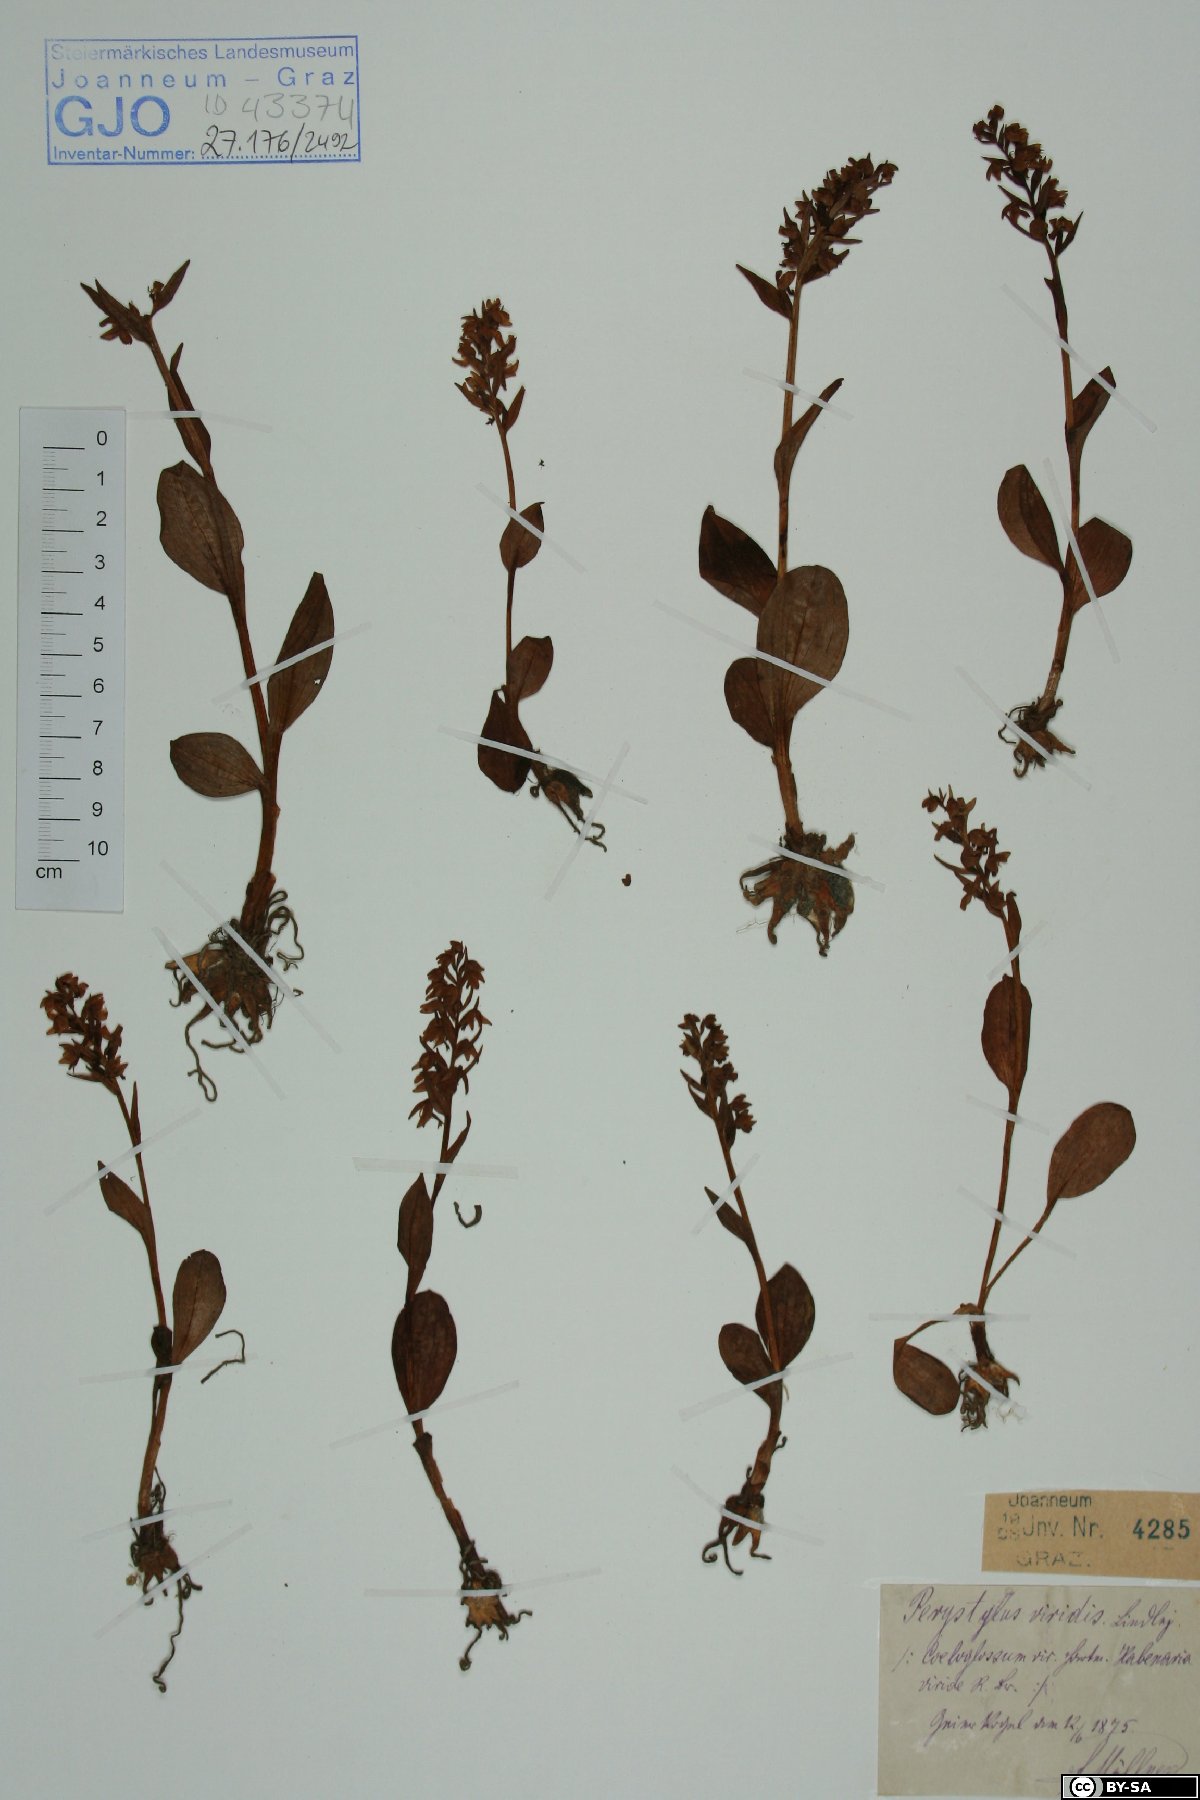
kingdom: Plantae
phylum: Tracheophyta
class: Liliopsida
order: Asparagales
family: Orchidaceae
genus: Dactylorhiza
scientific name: Dactylorhiza viridis
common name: Longbract frog orchid
